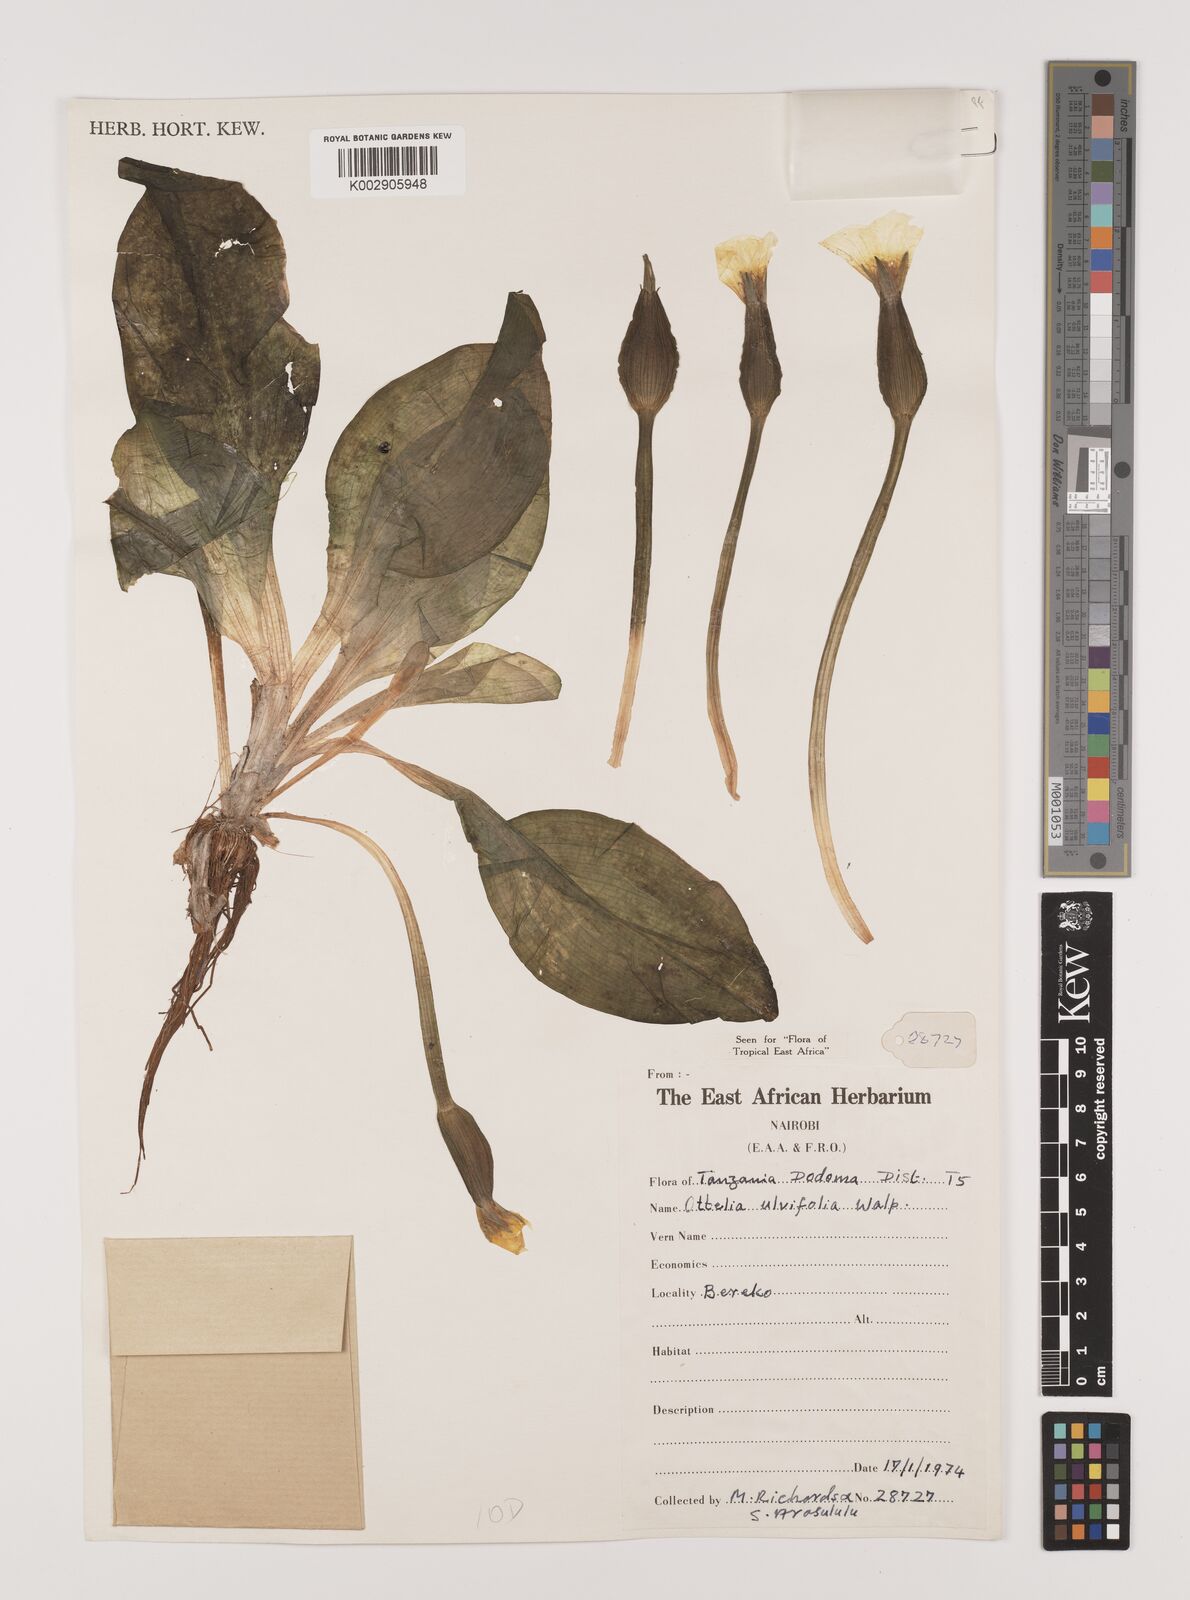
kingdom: Plantae
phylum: Tracheophyta
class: Liliopsida
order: Alismatales
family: Hydrocharitaceae
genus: Ottelia
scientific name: Ottelia ulvifolia
